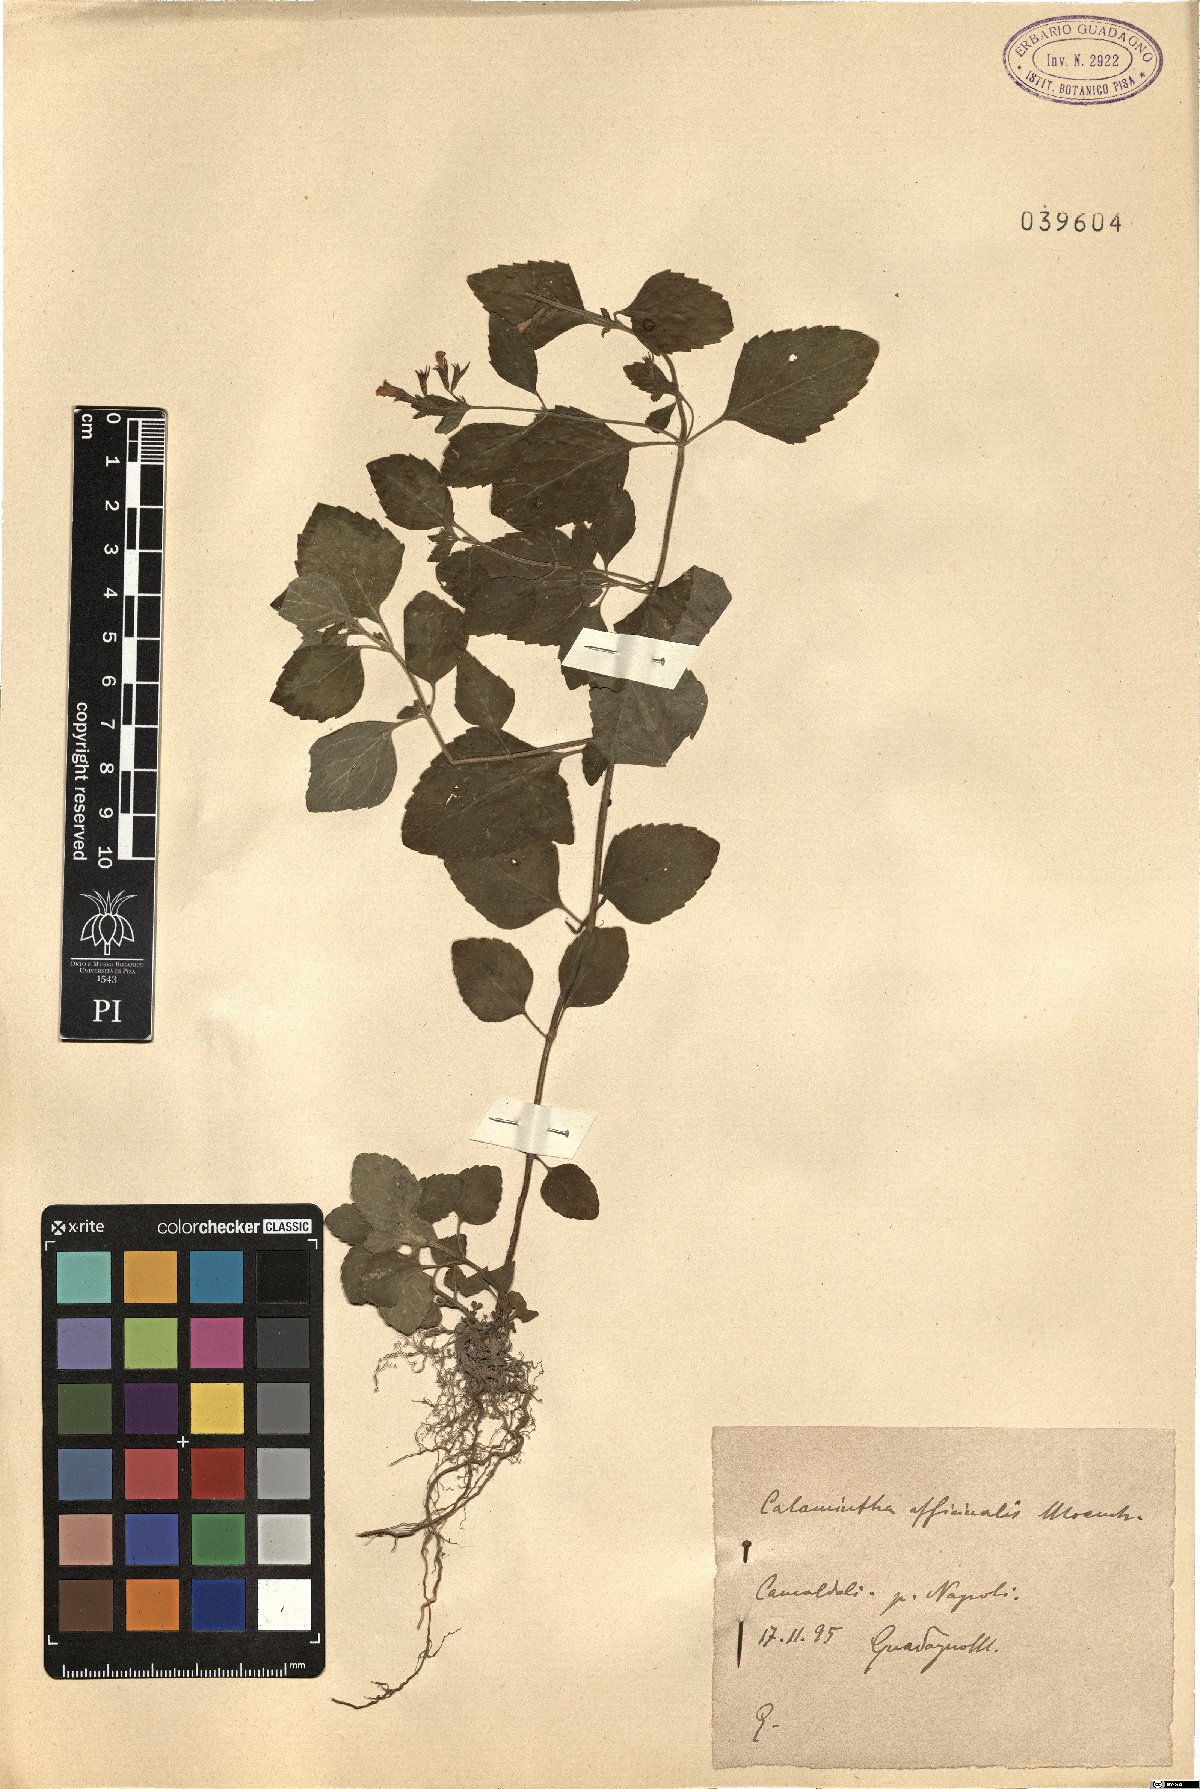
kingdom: Plantae
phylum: Tracheophyta
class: Magnoliopsida
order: Lamiales
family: Lamiaceae
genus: Clinopodium
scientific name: Clinopodium nepeta
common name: Lesser calamint
